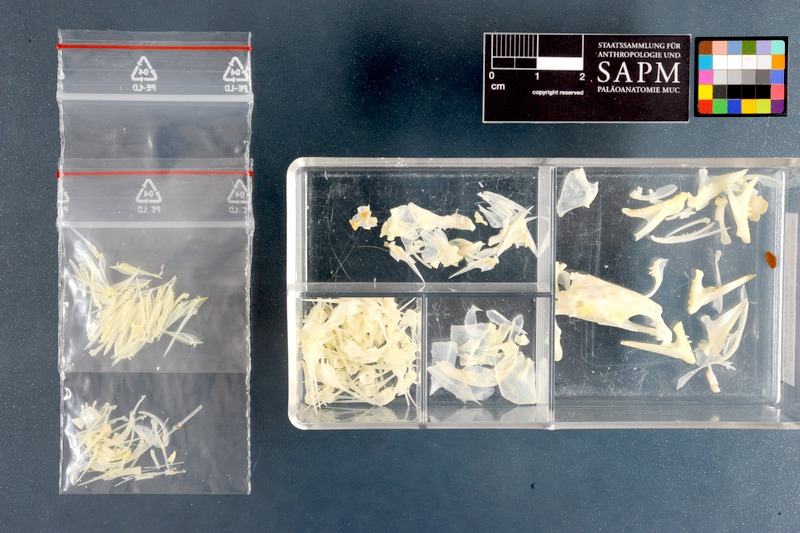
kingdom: Animalia
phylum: Chordata
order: Perciformes
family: Clinidae
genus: Pavoclinus
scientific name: Pavoclinus mentalis
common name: Bearded klipfish
